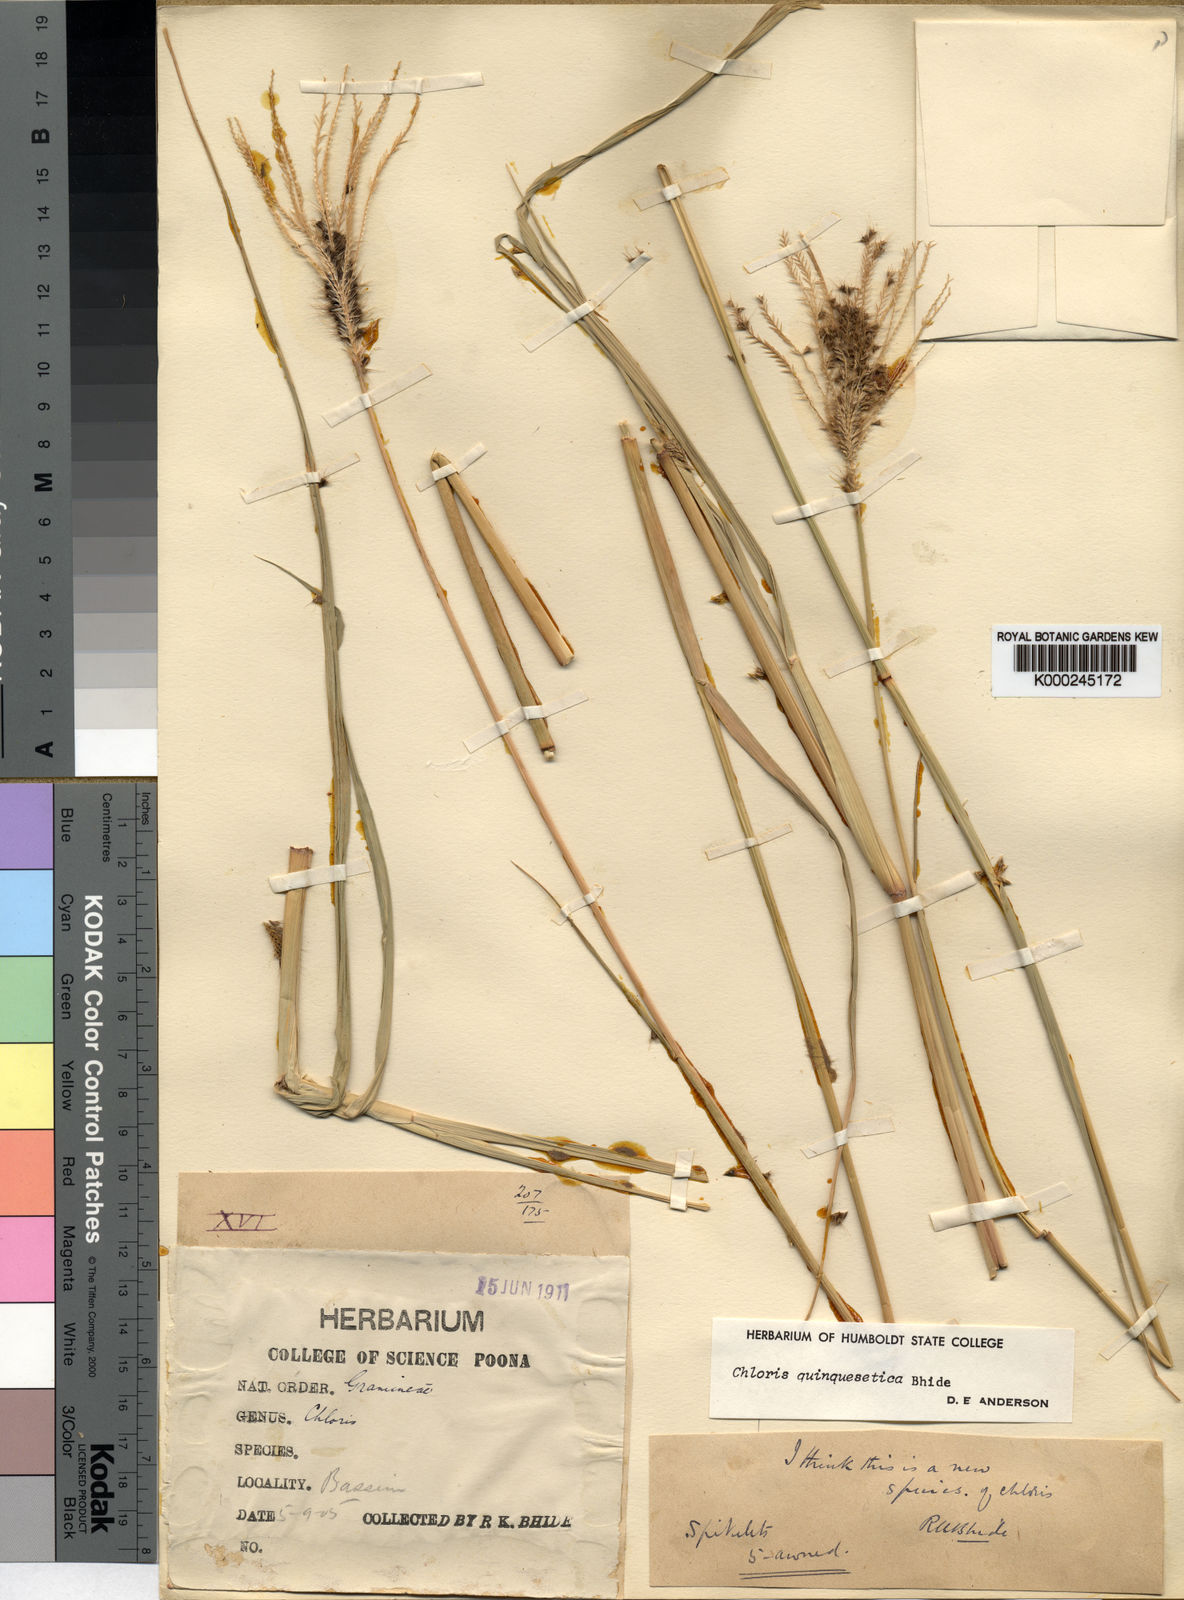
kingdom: Plantae
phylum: Tracheophyta
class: Liliopsida
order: Poales
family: Poaceae
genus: Chloris
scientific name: Chloris quinquesetica
